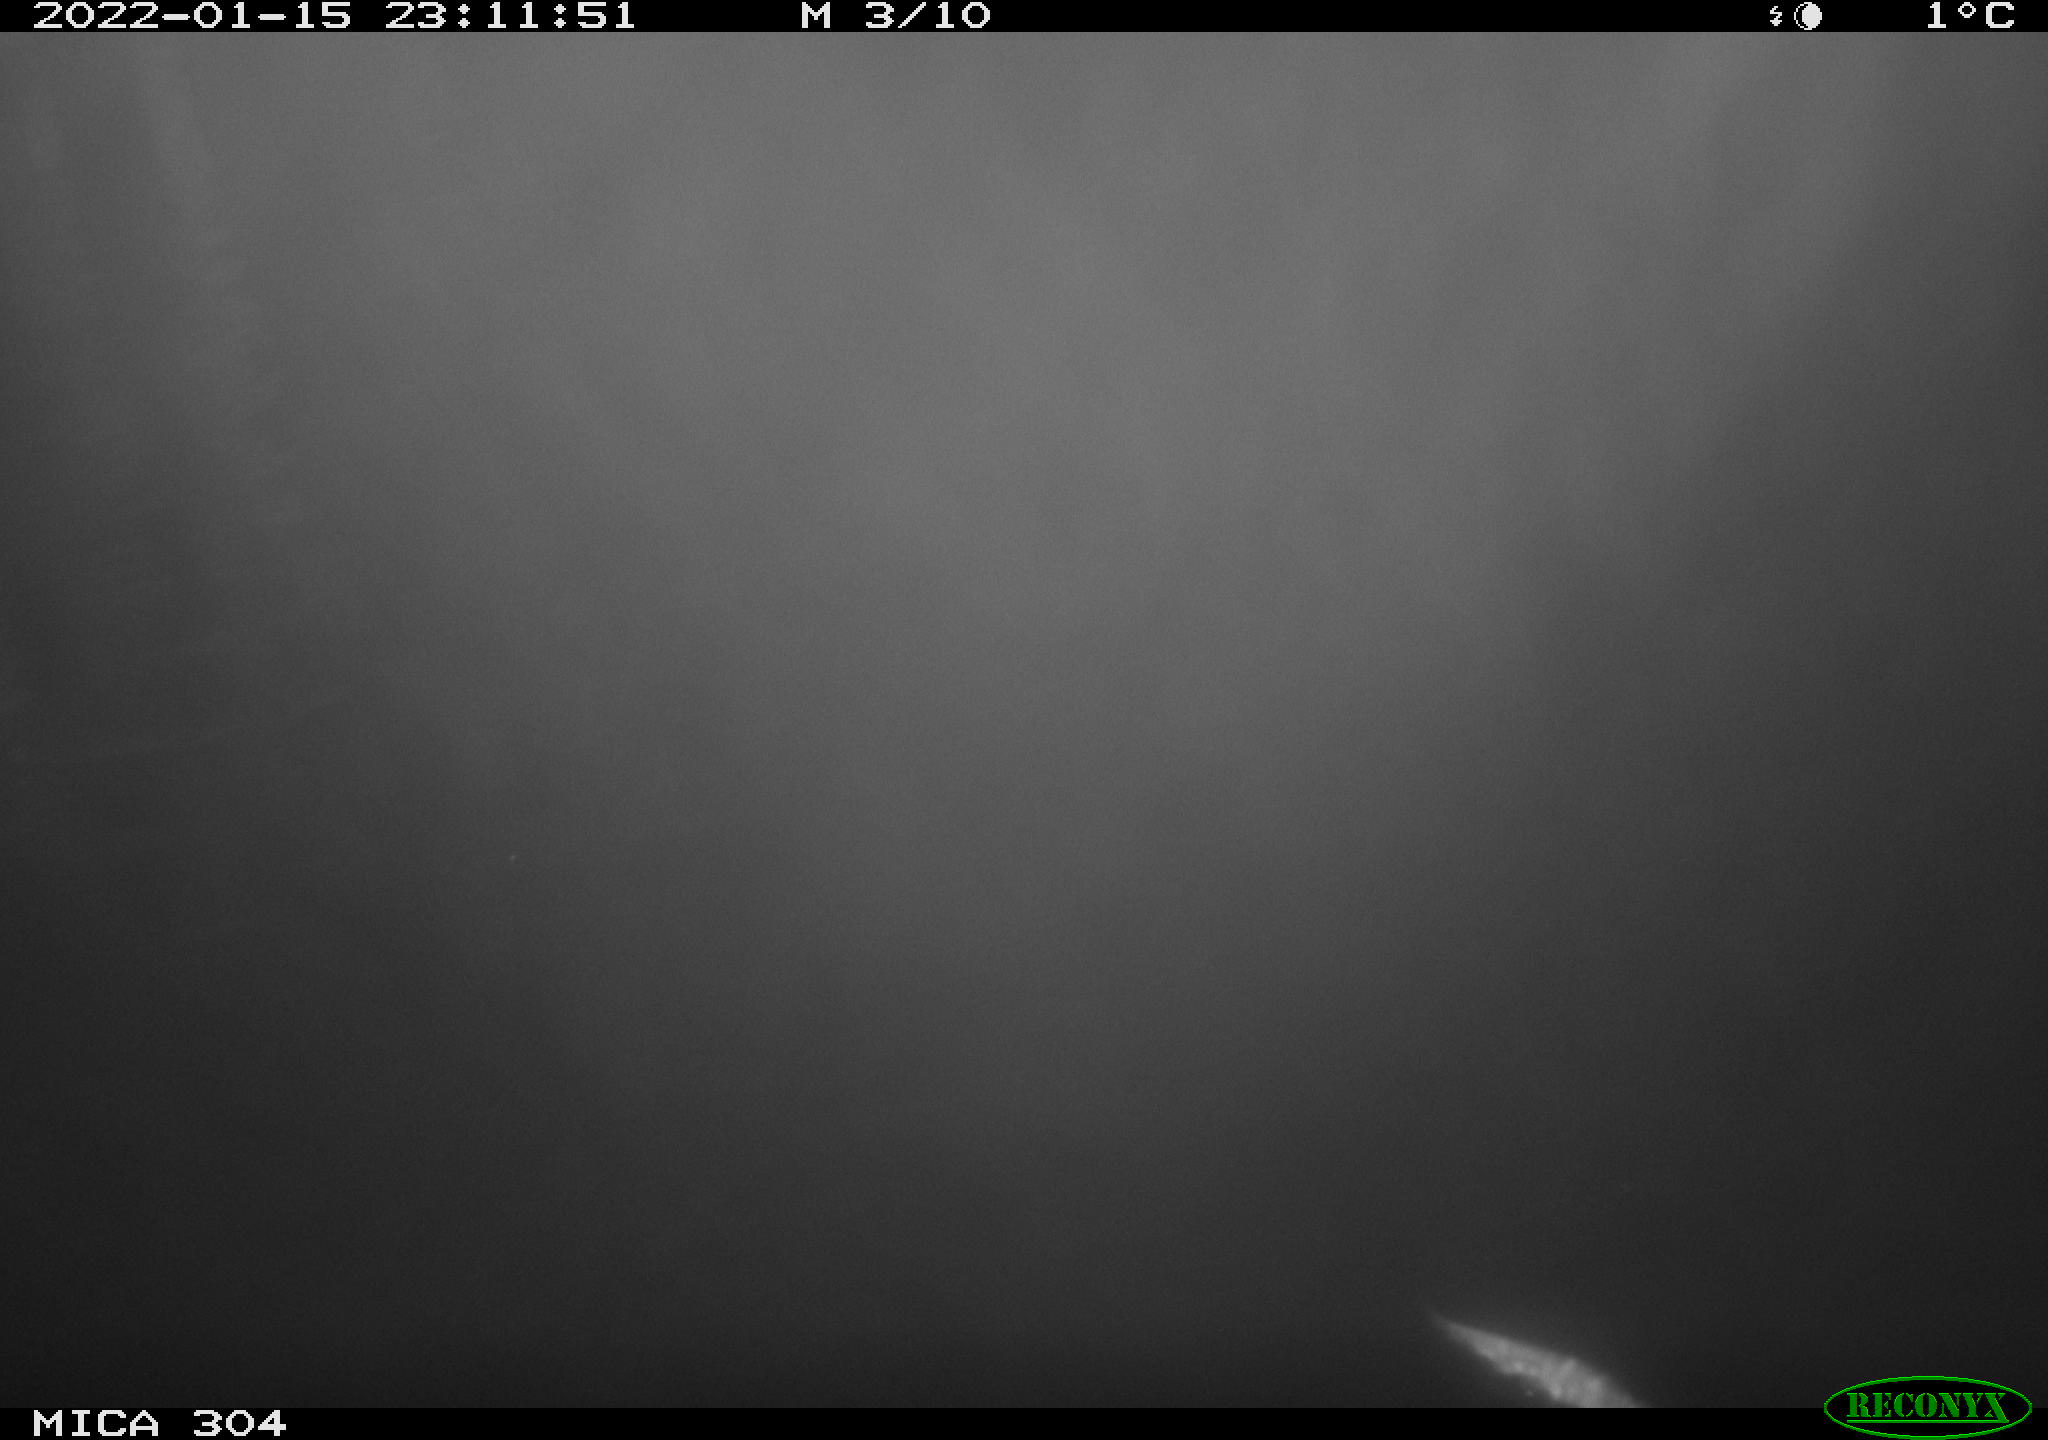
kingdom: Animalia
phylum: Chordata
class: Mammalia
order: Rodentia
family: Cricetidae
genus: Ondatra
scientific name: Ondatra zibethicus
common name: Muskrat
